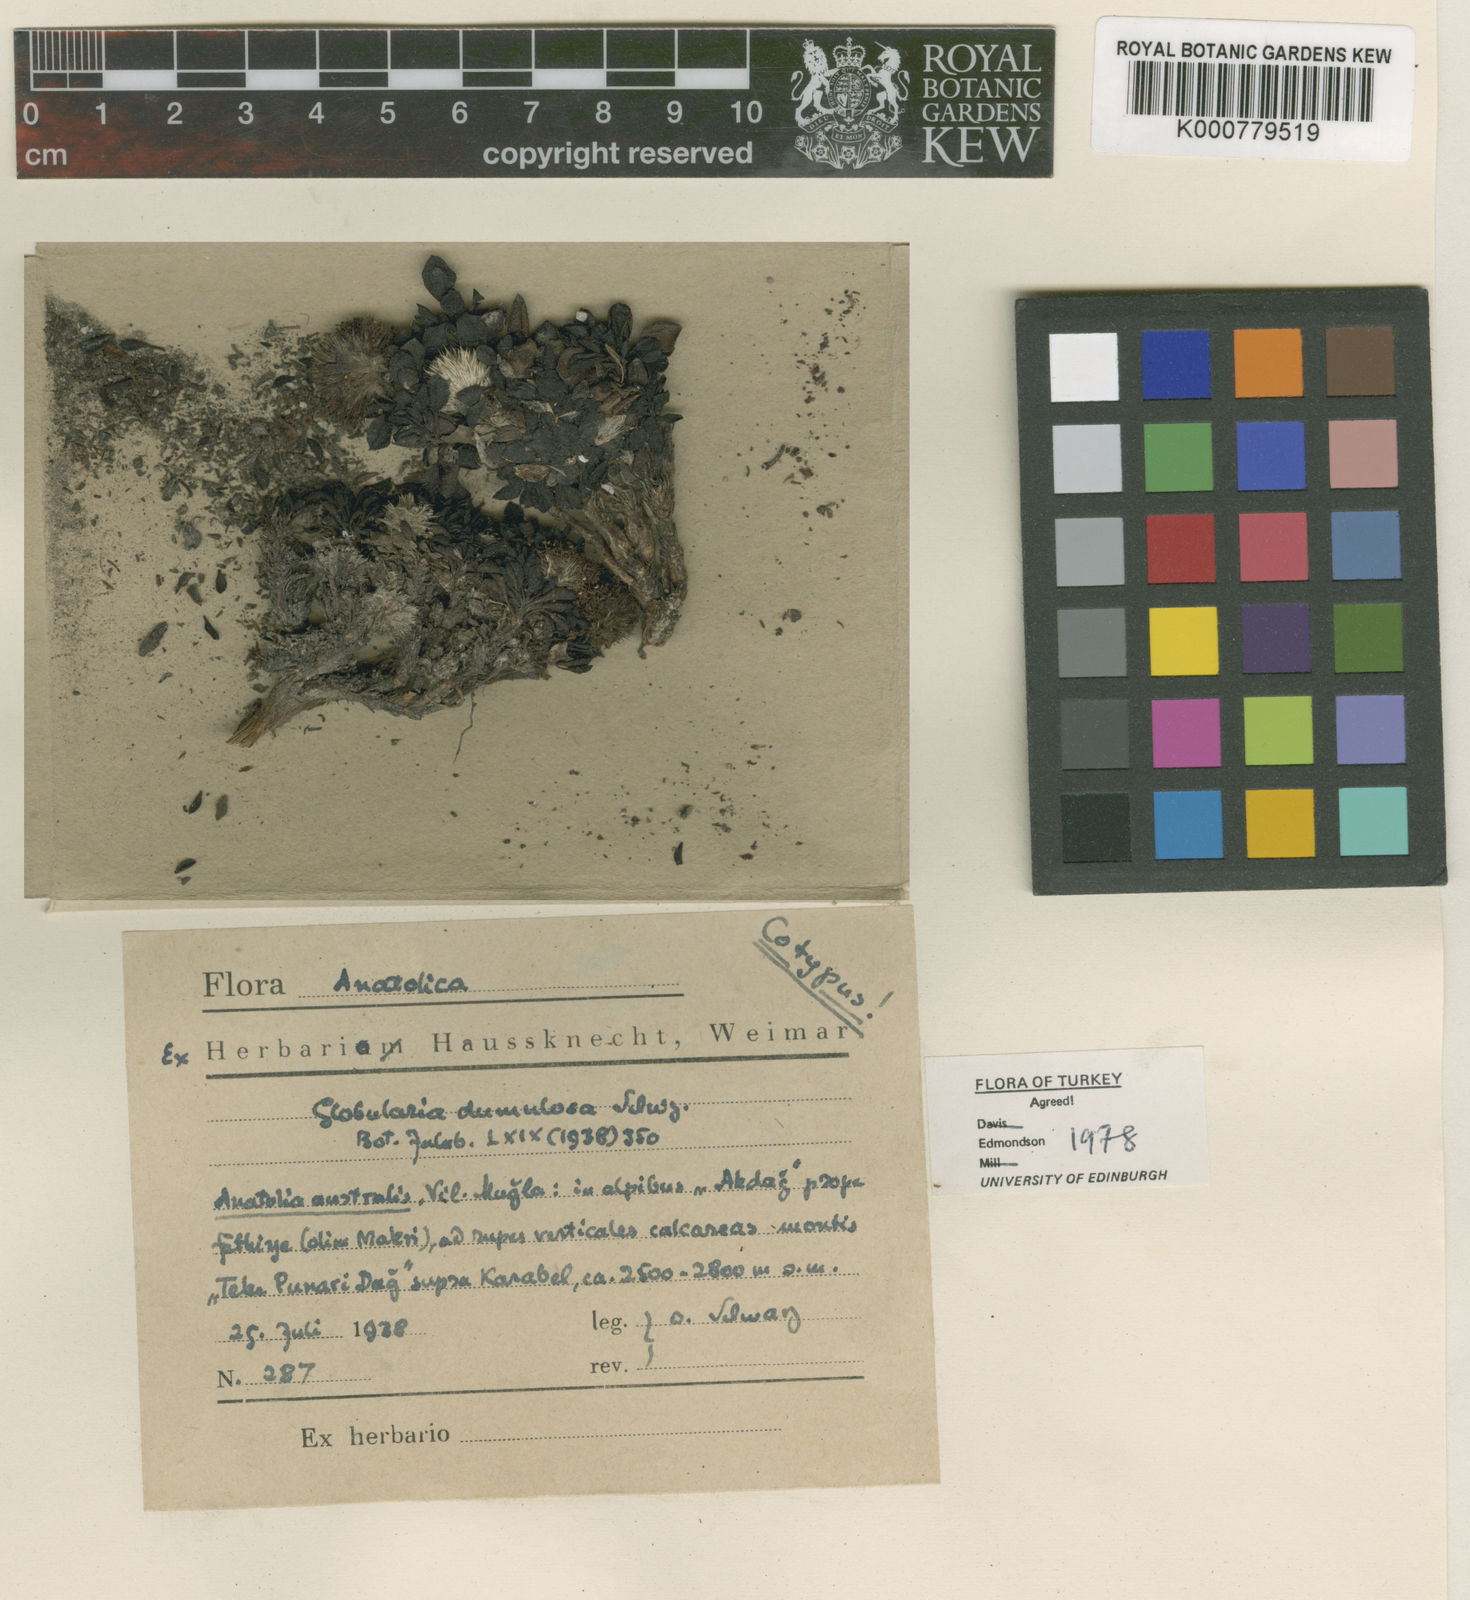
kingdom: Plantae
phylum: Tracheophyta
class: Magnoliopsida
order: Lamiales
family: Plantaginaceae
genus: Globularia
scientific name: Globularia dumulosa
